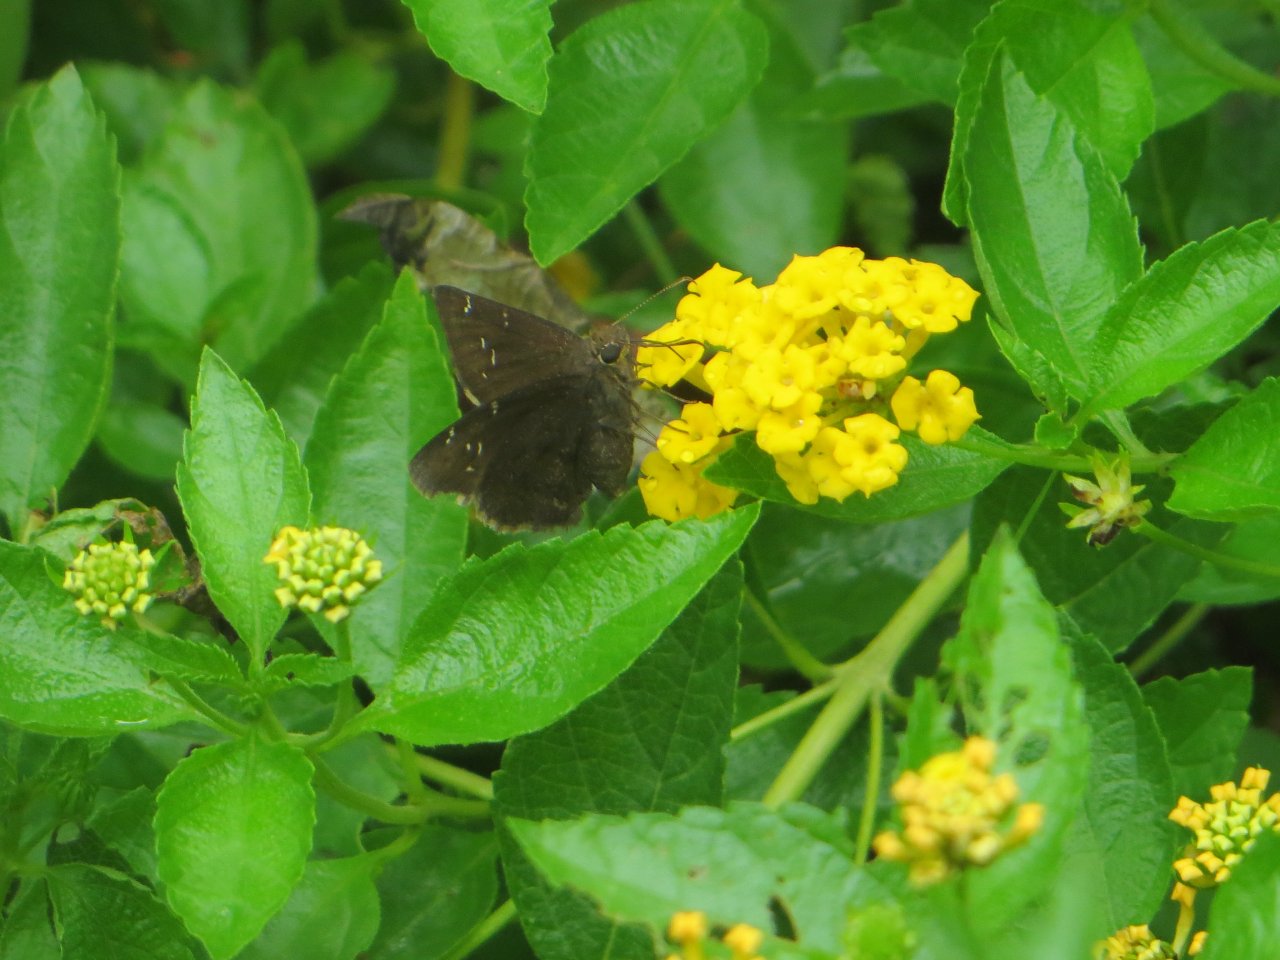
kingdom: Animalia
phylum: Arthropoda
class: Insecta
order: Lepidoptera
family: Hesperiidae
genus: Thorybes
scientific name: Thorybes
